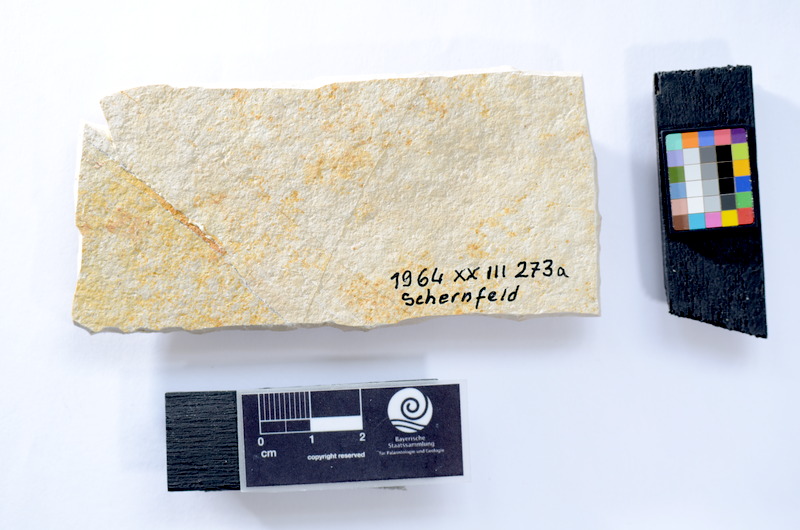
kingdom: Animalia
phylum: Chordata
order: Salmoniformes
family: Orthogonikleithridae
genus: Leptolepides
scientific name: Leptolepides
